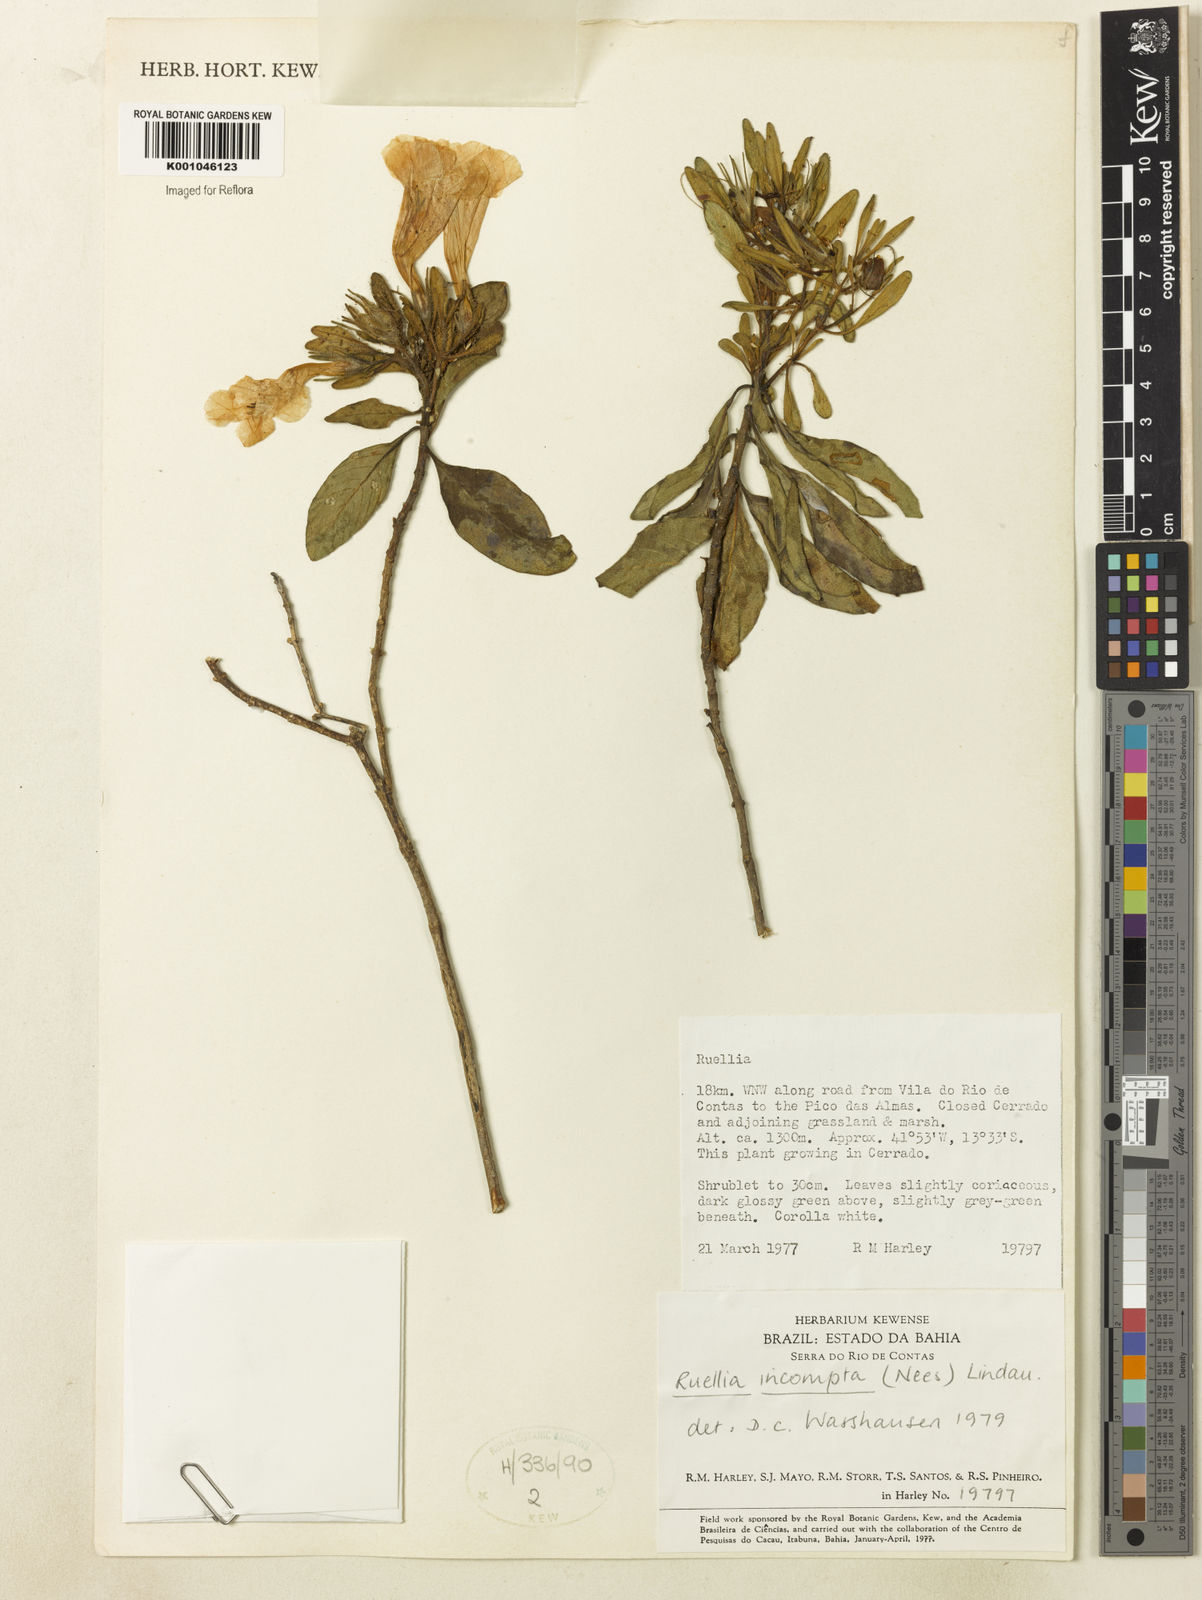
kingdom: Plantae
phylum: Tracheophyta
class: Magnoliopsida
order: Lamiales
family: Acanthaceae
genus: Ruellia
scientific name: Ruellia
